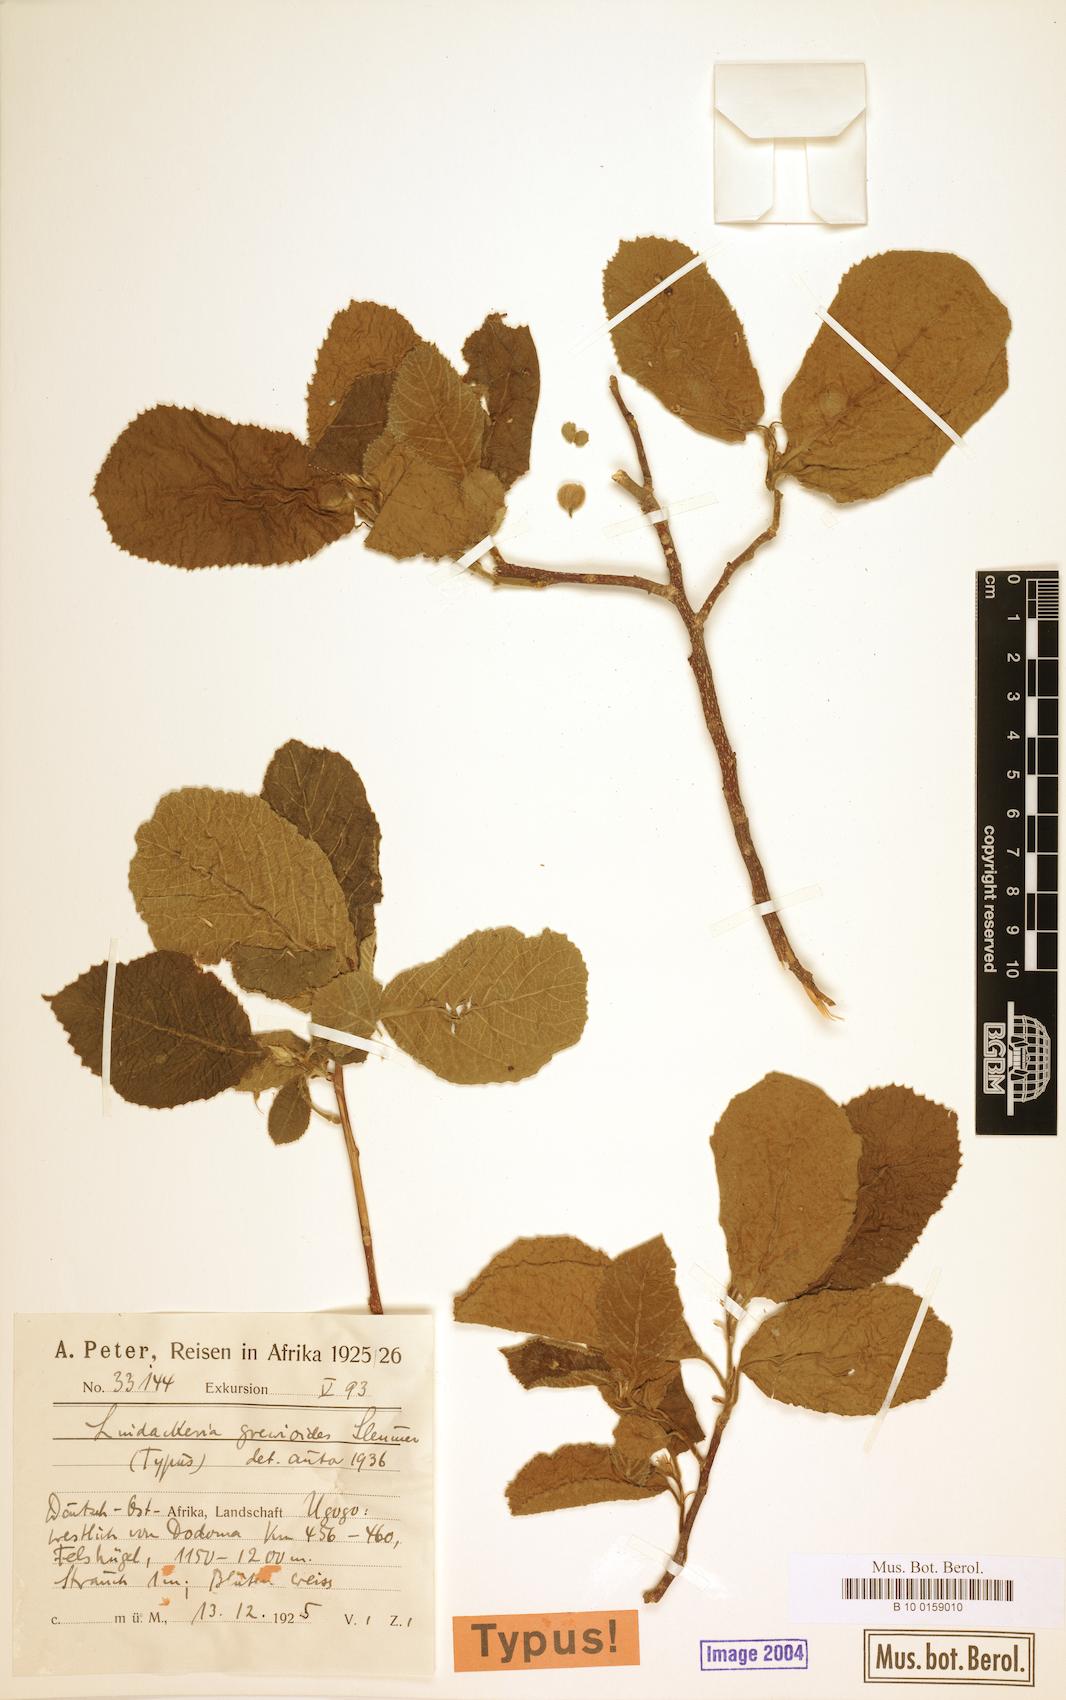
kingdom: Plantae
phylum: Tracheophyta
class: Magnoliopsida
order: Malpighiales
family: Achariaceae
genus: Lindackeria
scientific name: Lindackeria stipulata
